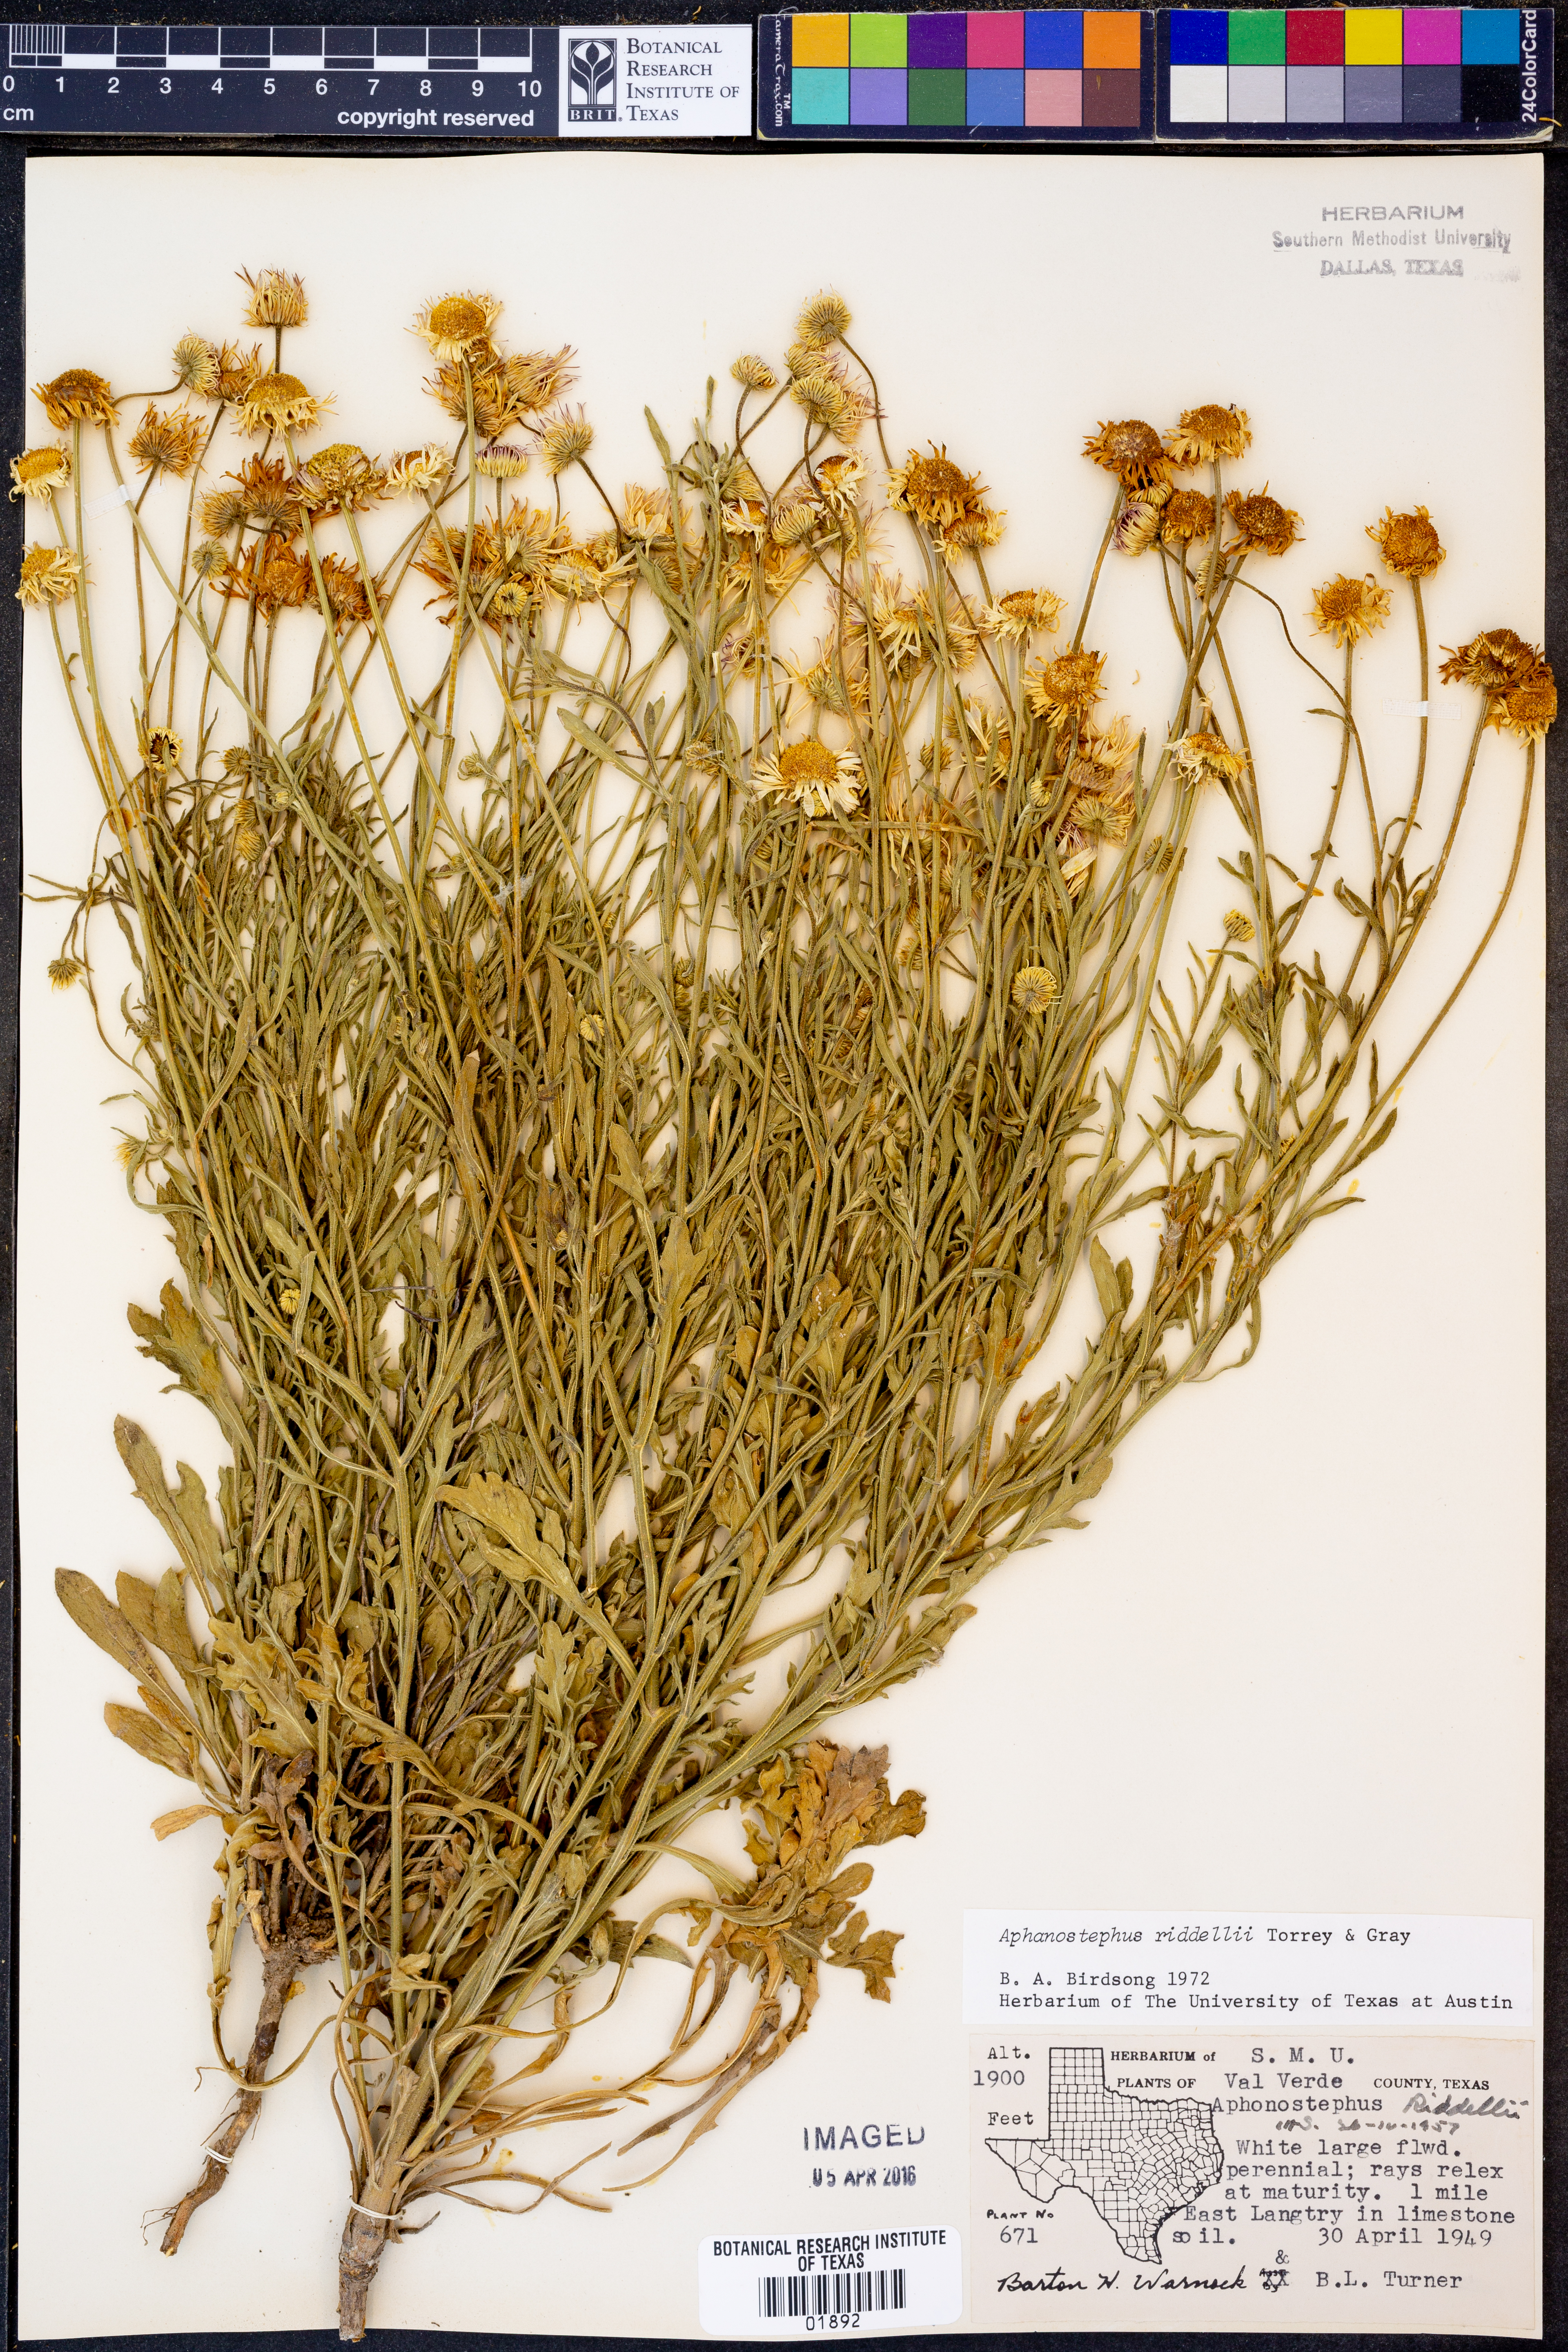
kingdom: Plantae
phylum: Tracheophyta
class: Magnoliopsida
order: Asterales
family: Asteraceae
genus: Aphanostephus
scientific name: Aphanostephus riddellii
